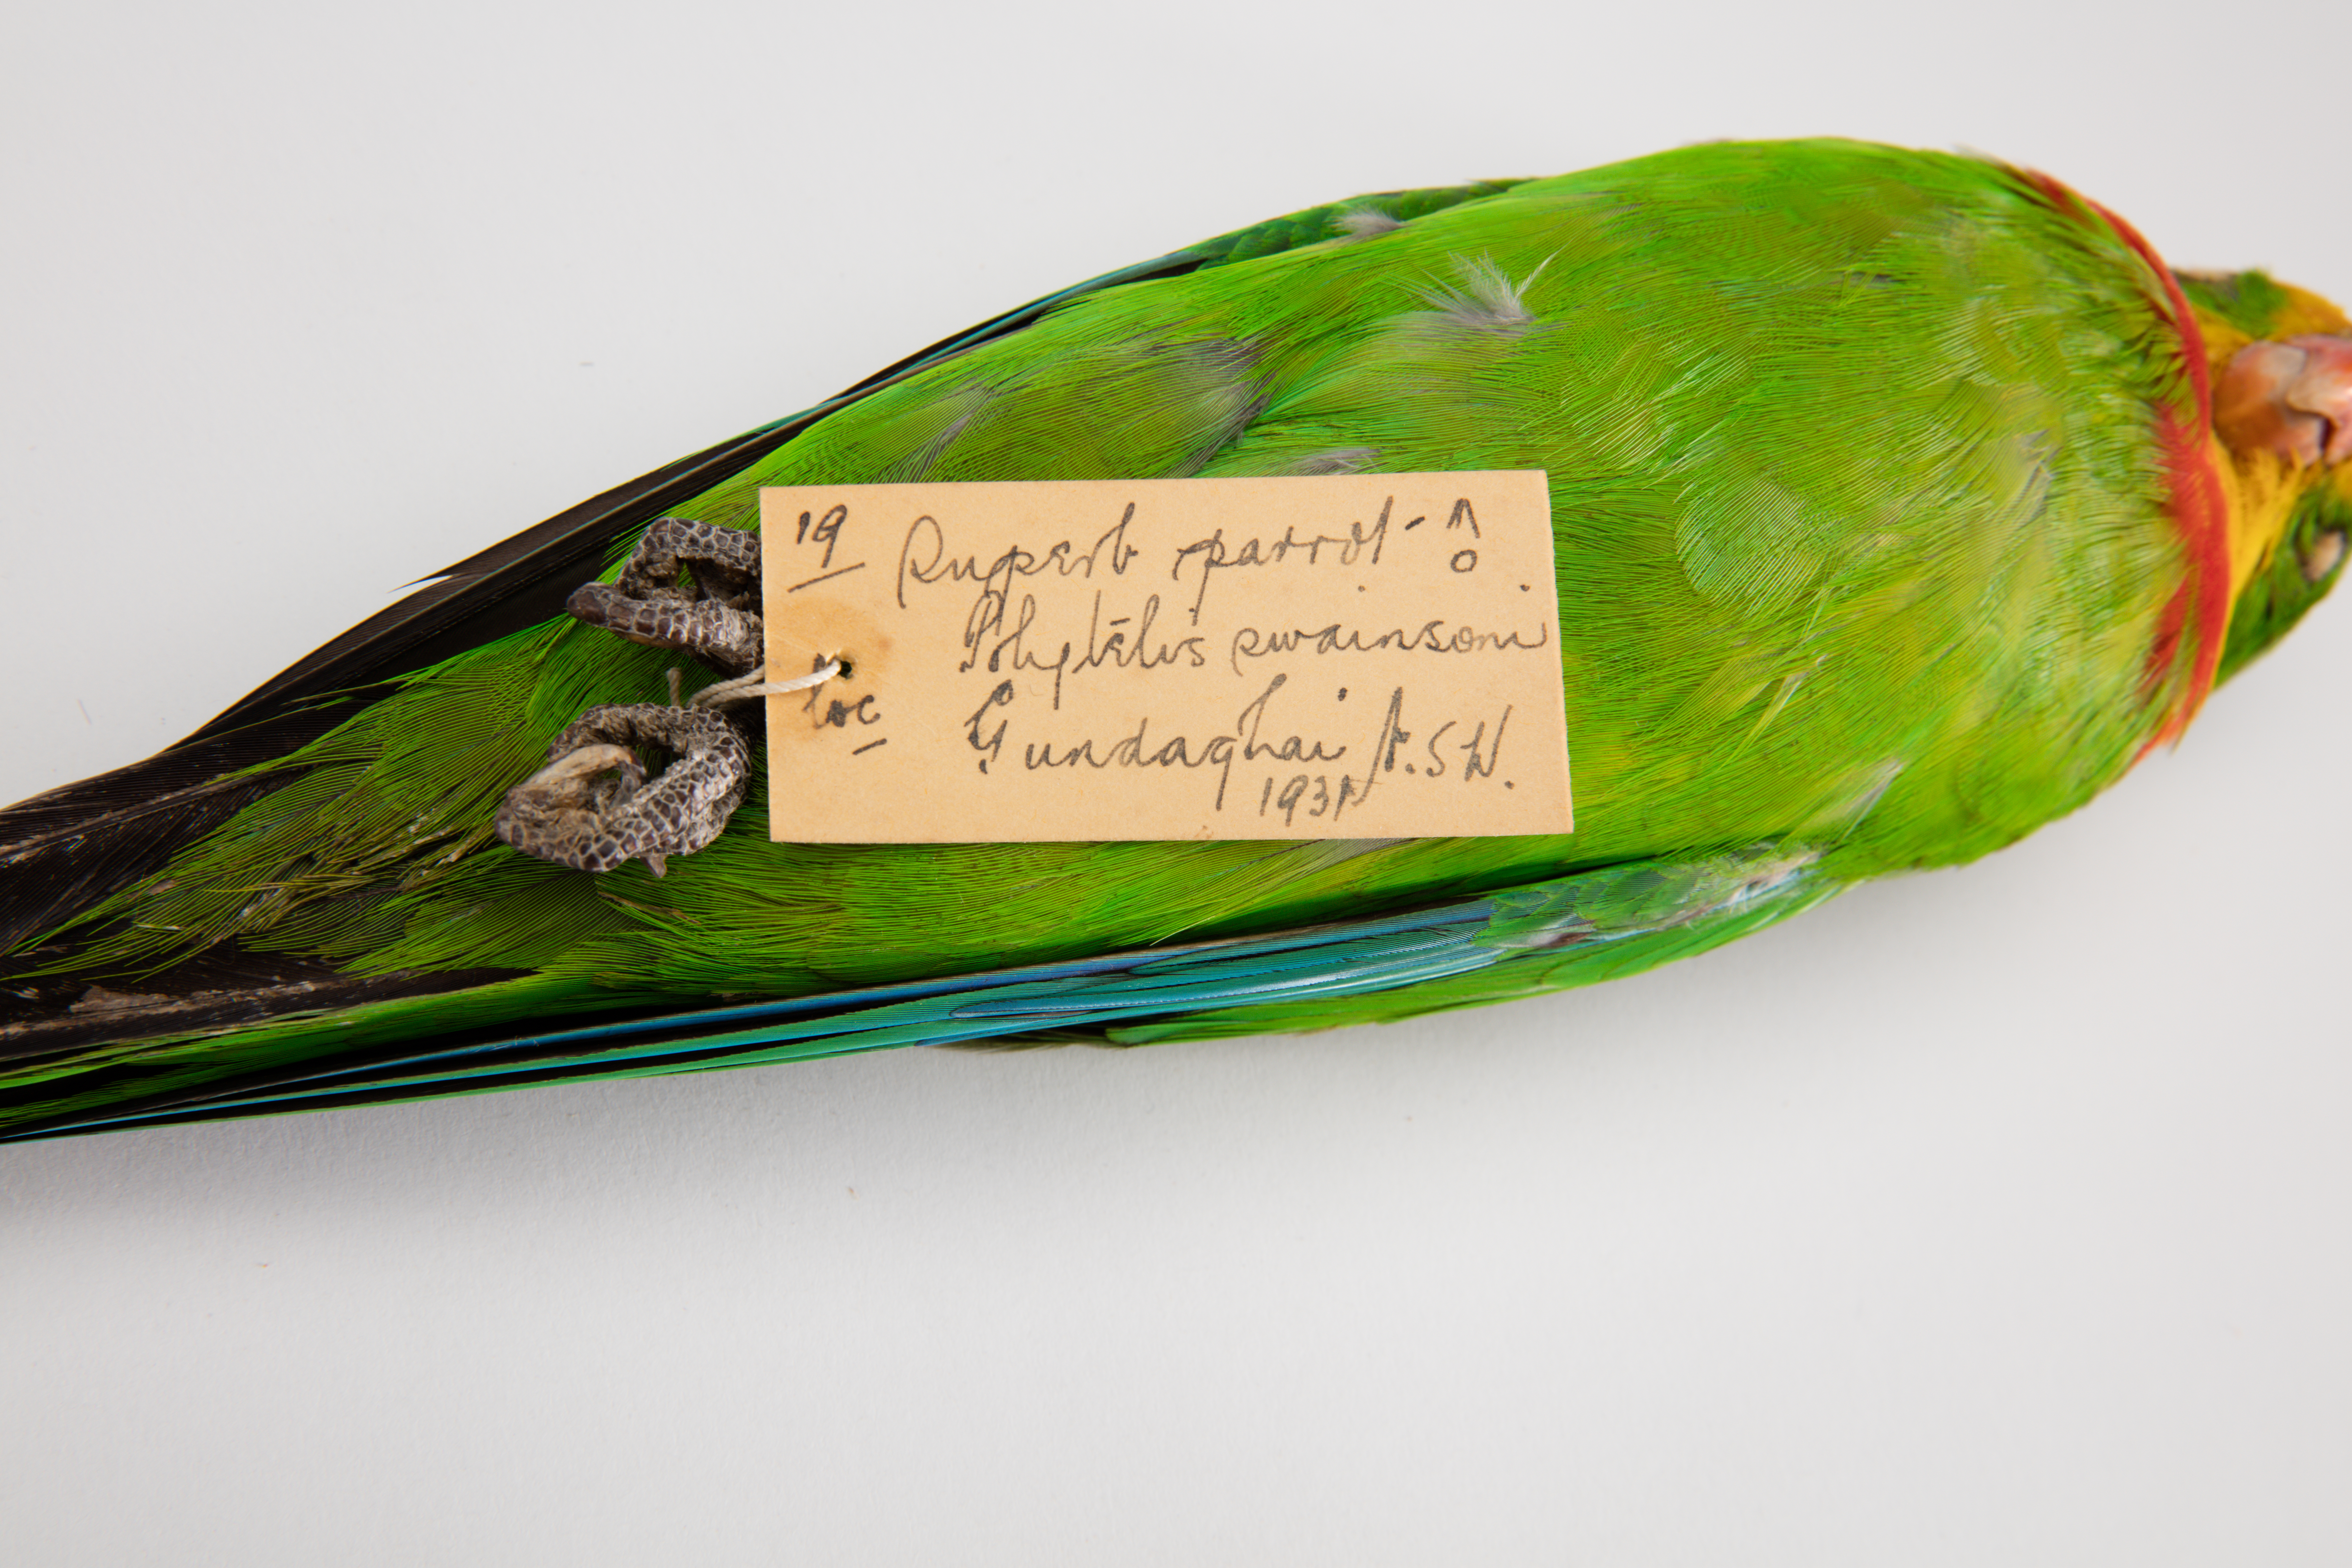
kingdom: Animalia
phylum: Chordata
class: Aves
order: Psittaciformes
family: Psittacidae
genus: Polytelis
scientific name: Polytelis swainsonii
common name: Superb parrot
